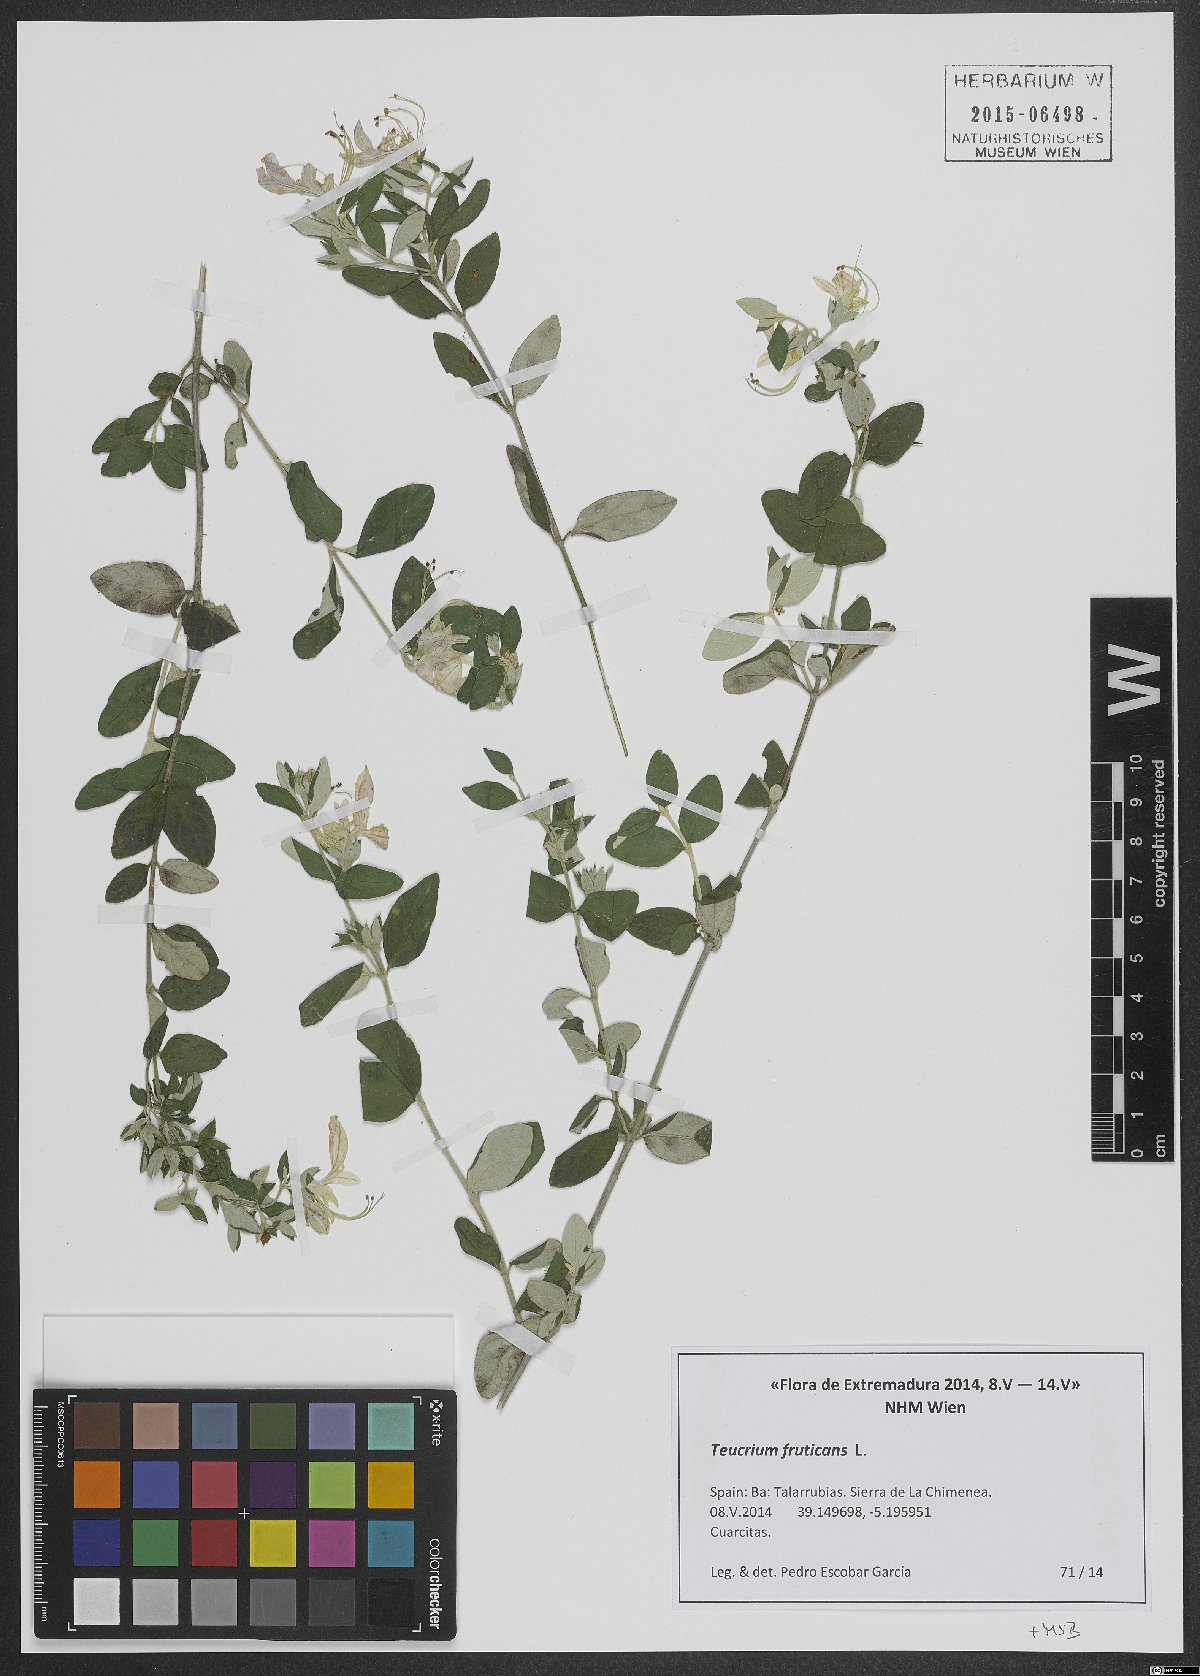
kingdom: Plantae
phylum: Tracheophyta
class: Magnoliopsida
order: Lamiales
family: Lamiaceae
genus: Teucrium
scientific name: Teucrium fruticans
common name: Shrubby germander
